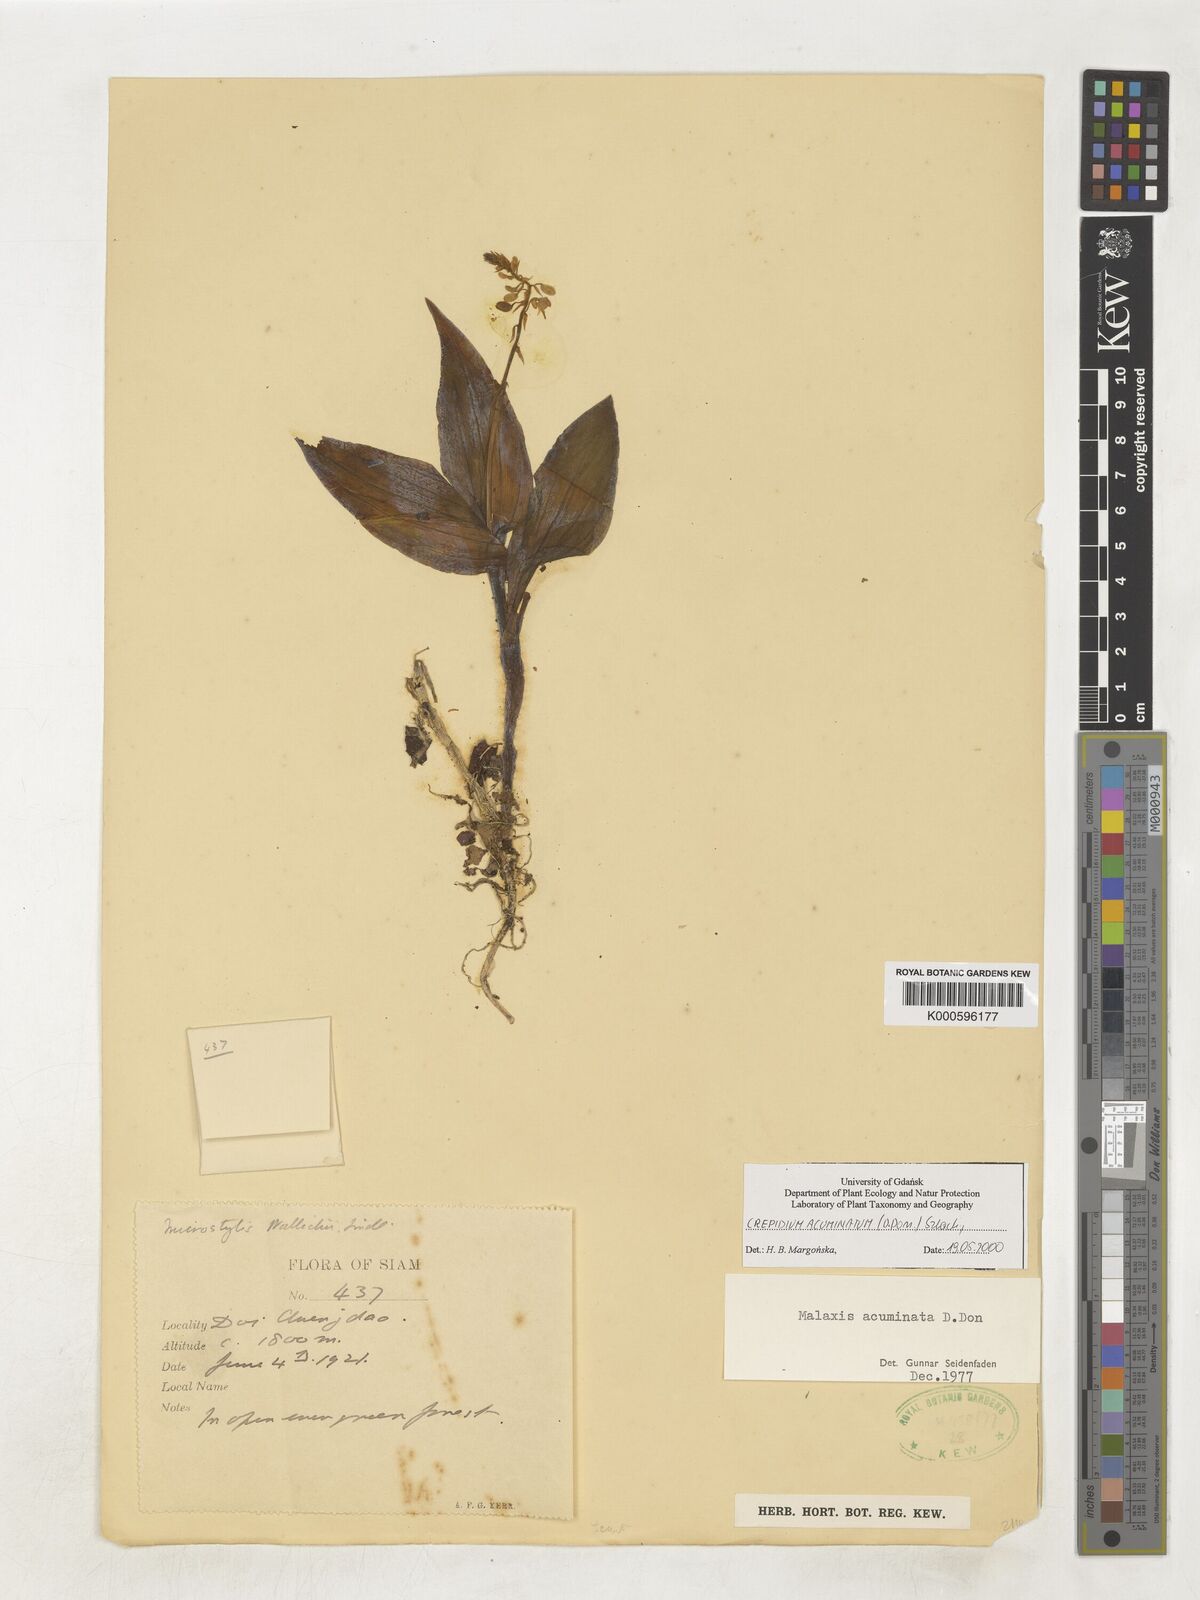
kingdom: Plantae
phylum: Tracheophyta
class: Liliopsida
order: Asparagales
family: Orchidaceae
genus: Crepidium
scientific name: Crepidium acuminatum
